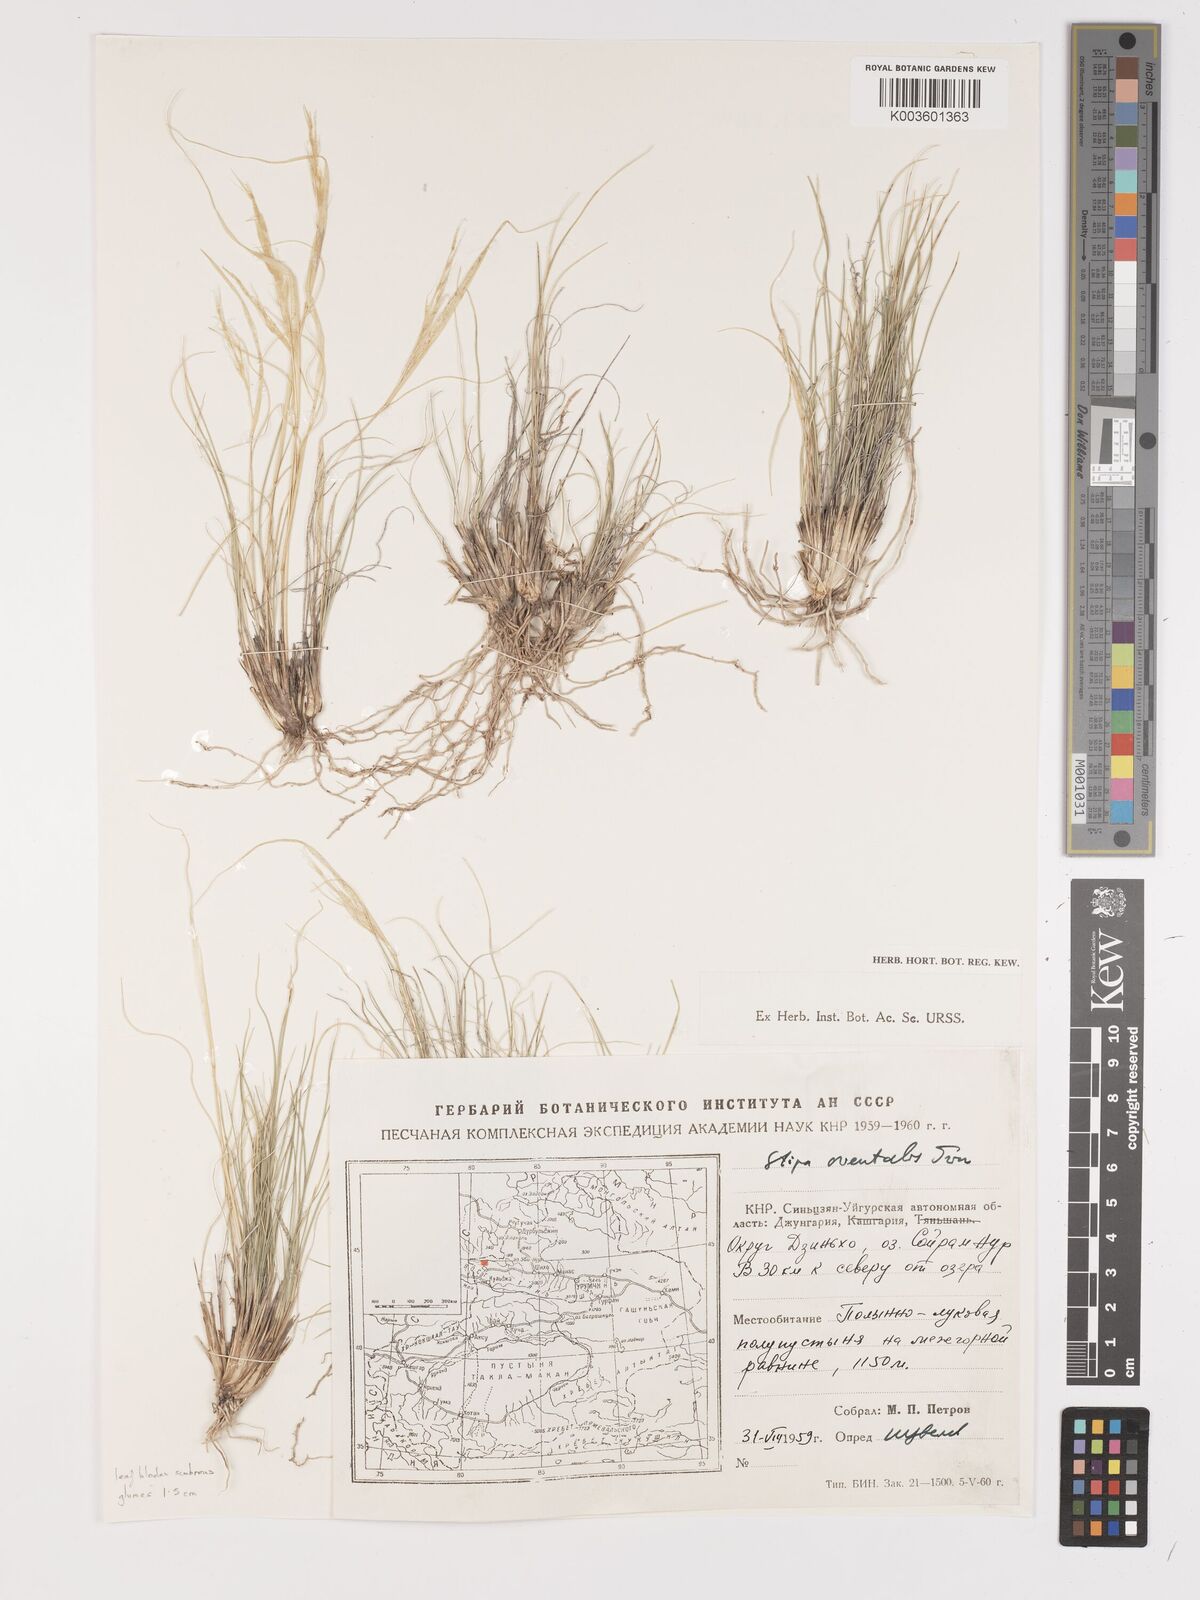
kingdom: Plantae
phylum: Tracheophyta
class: Liliopsida
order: Poales
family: Poaceae
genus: Stipa
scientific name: Stipa orientalis
